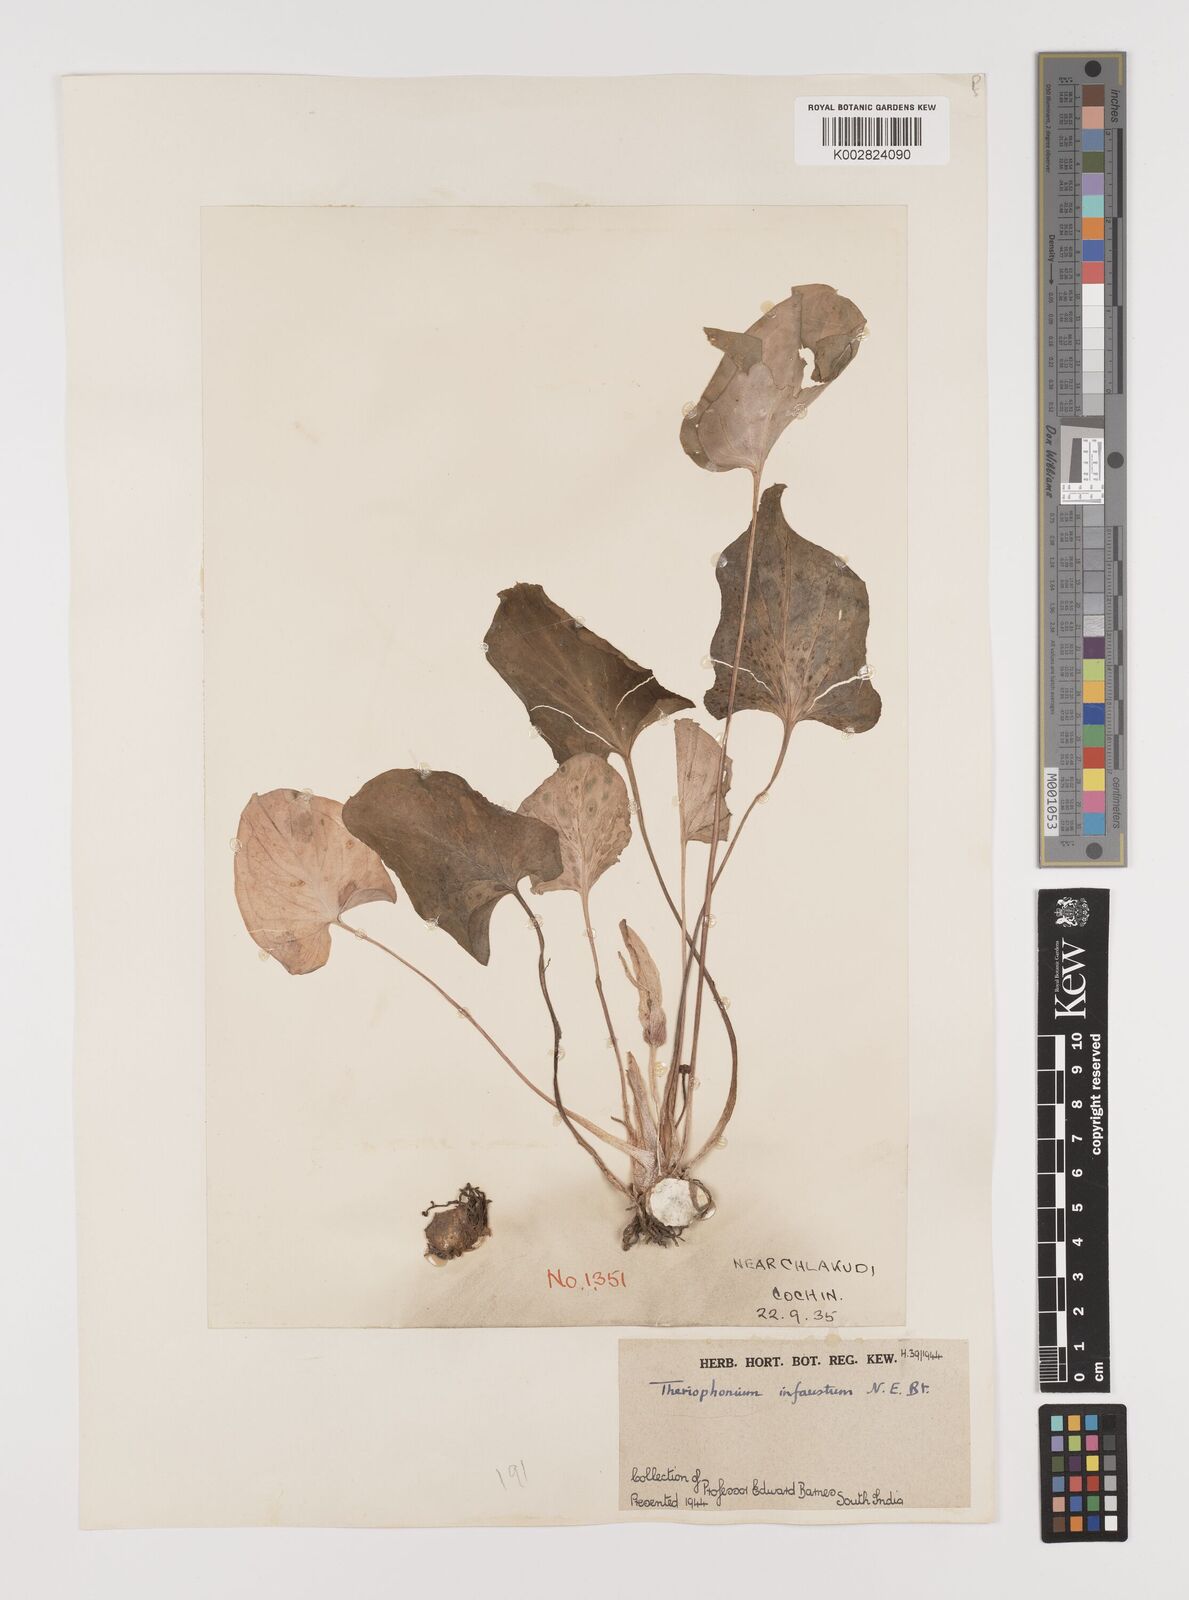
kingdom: Plantae
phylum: Tracheophyta
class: Liliopsida
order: Alismatales
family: Araceae
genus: Theriophonum
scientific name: Theriophonum infaustum
